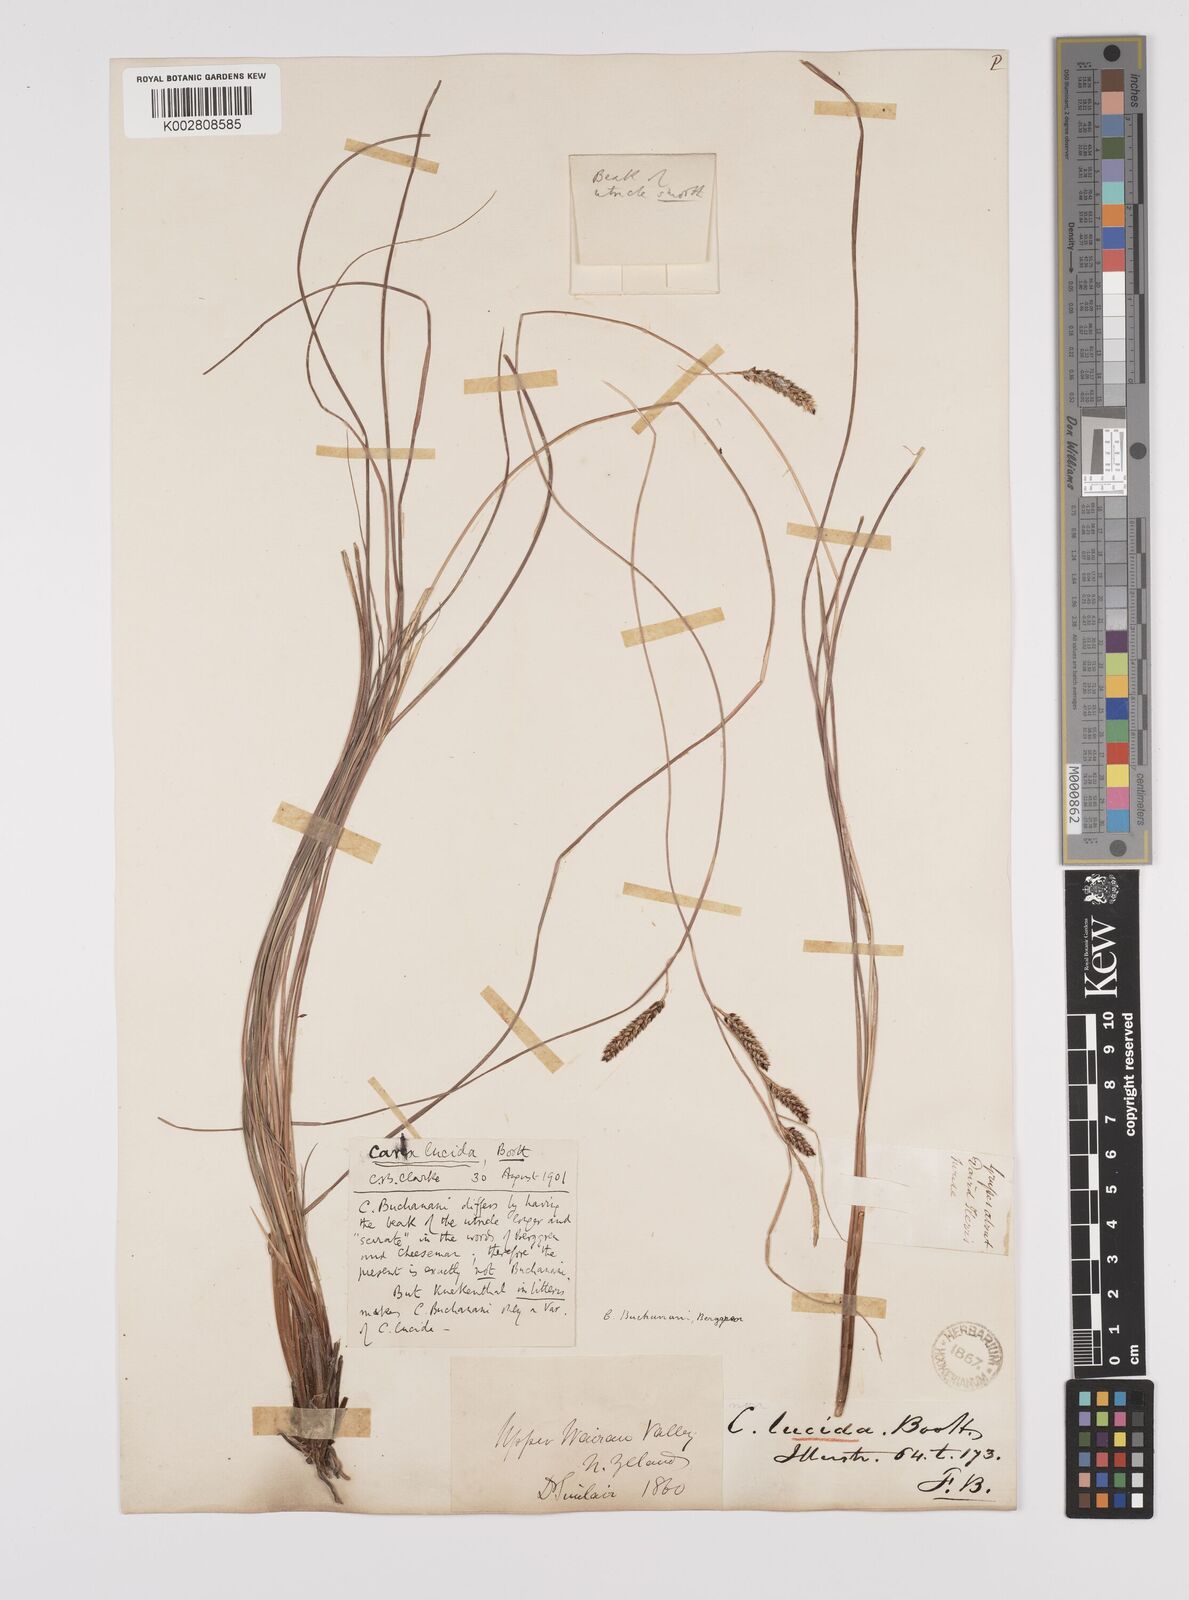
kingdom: Plantae
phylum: Tracheophyta
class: Liliopsida
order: Poales
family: Cyperaceae
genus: Carex
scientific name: Carex flagellifera
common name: Glen murray tussock
